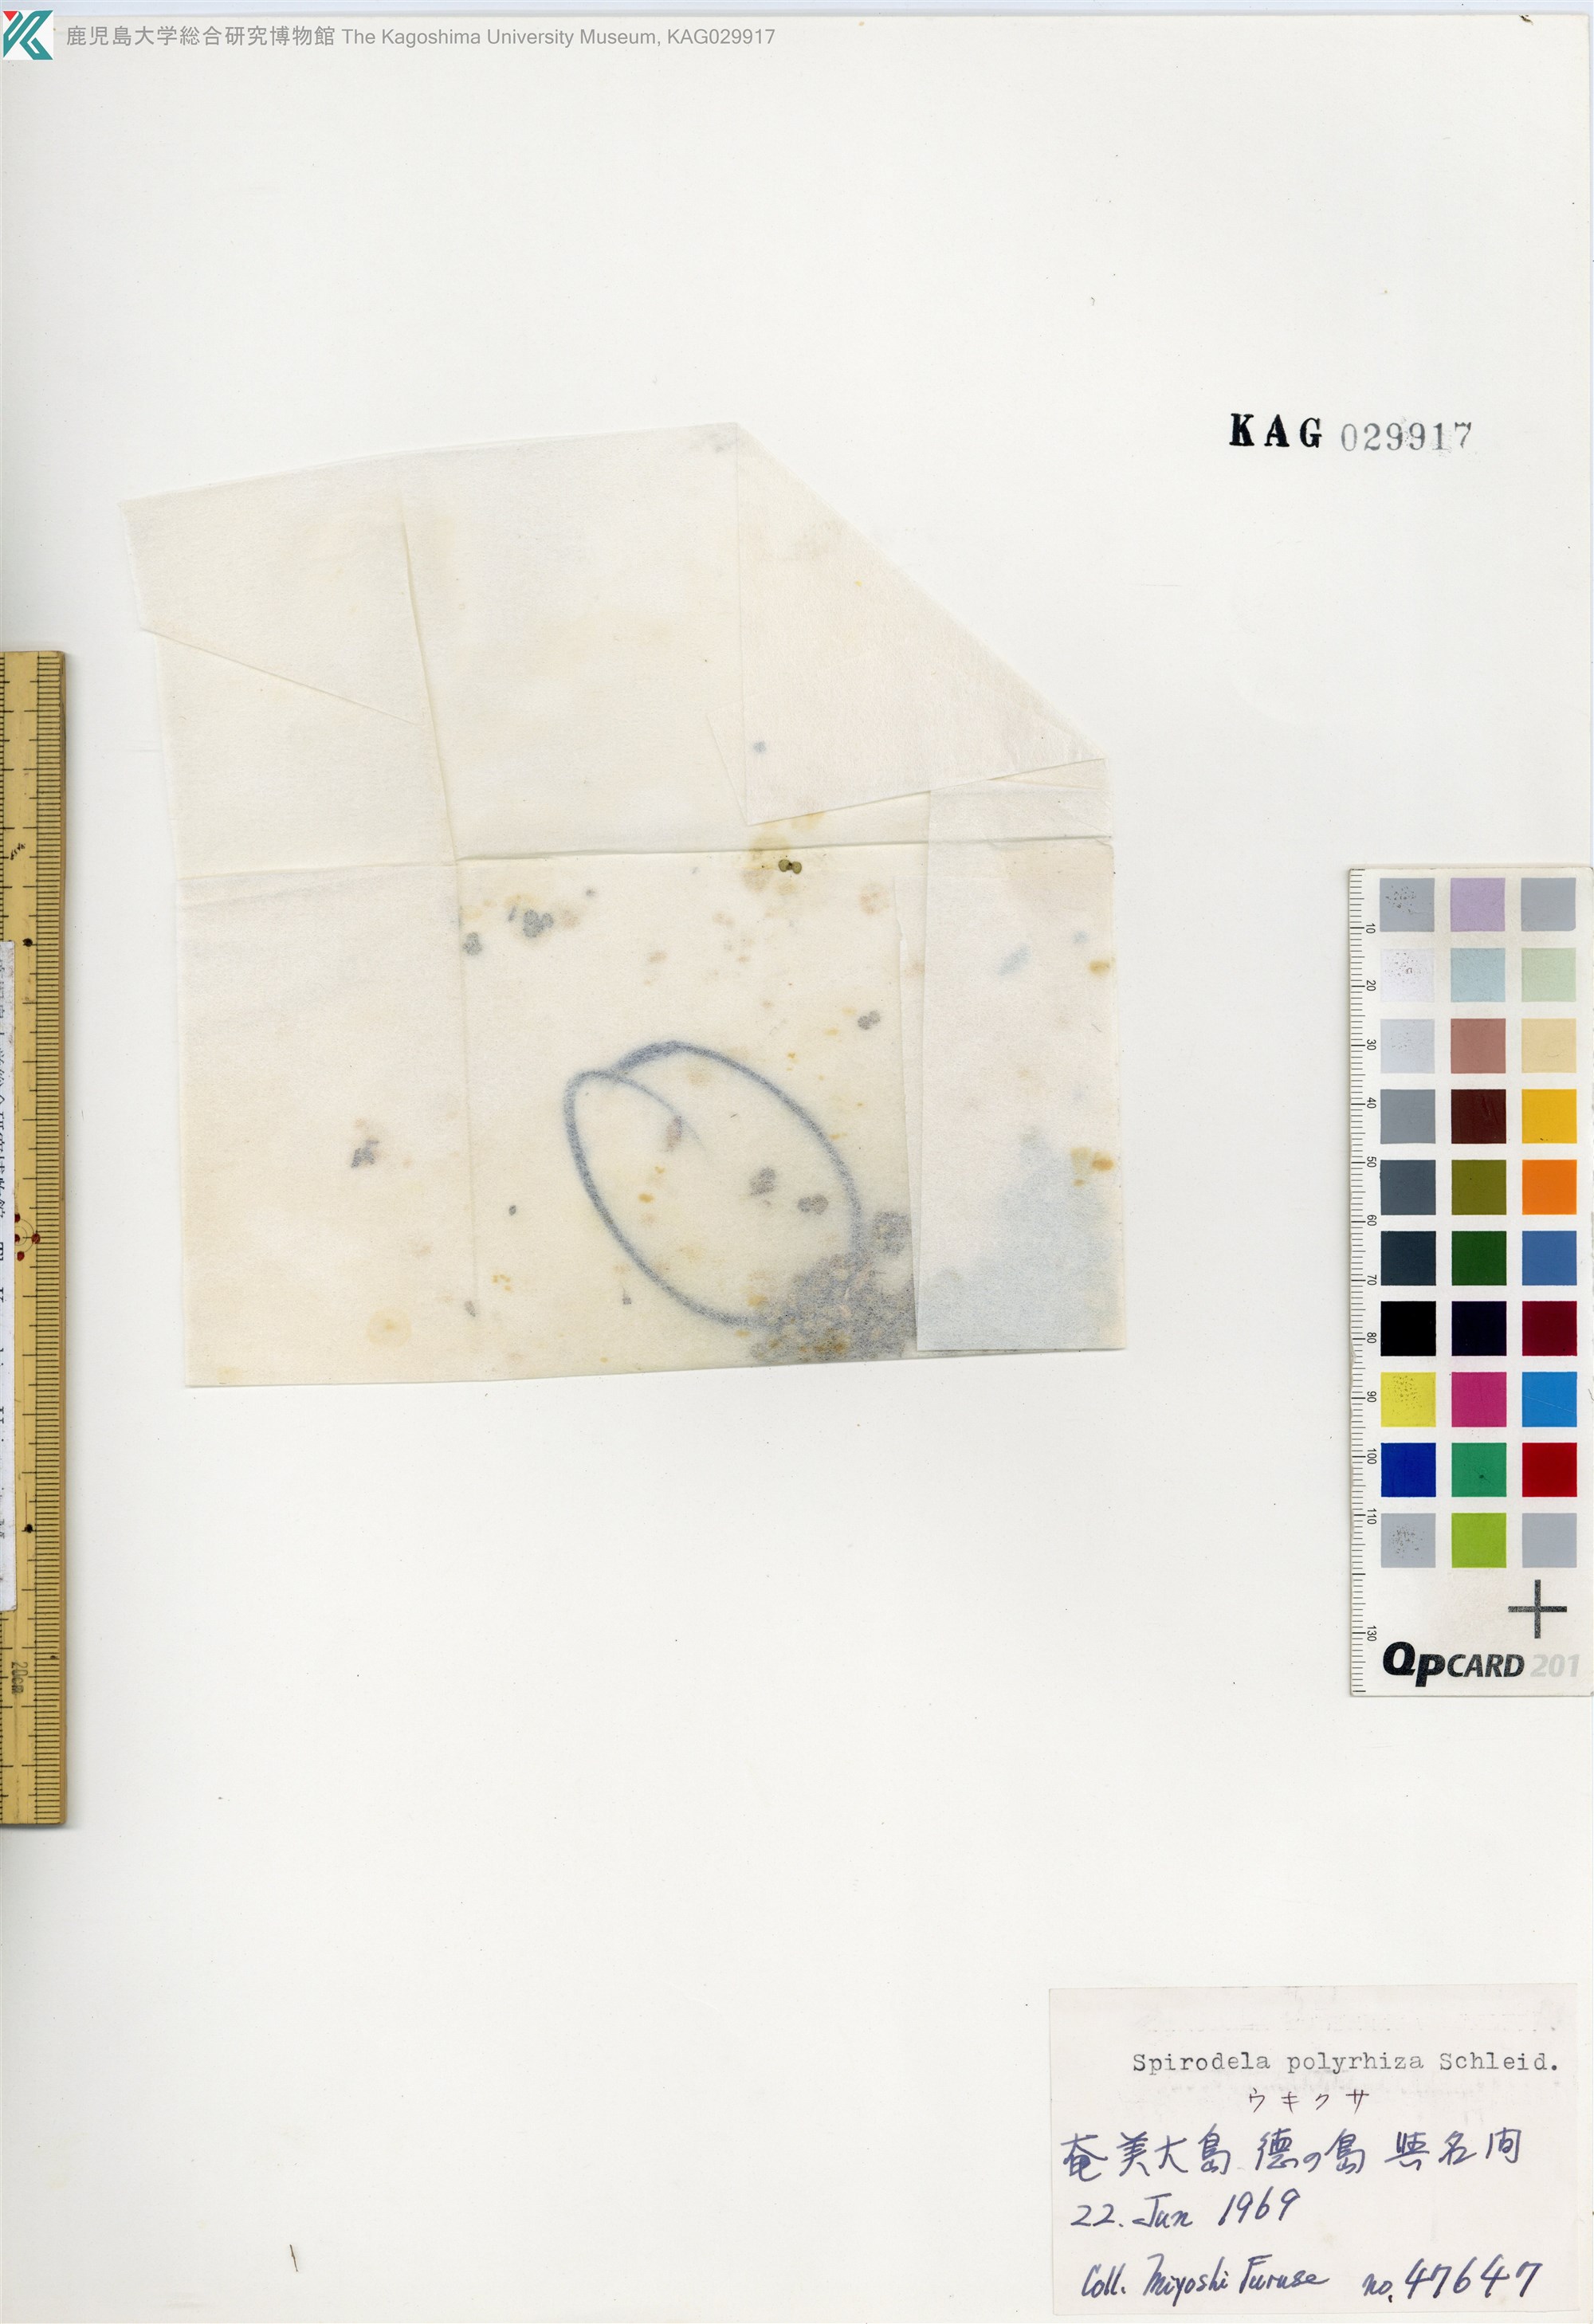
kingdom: Plantae
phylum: Tracheophyta
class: Liliopsida
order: Alismatales
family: Araceae
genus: Spirodela
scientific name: Spirodela polyrhiza
